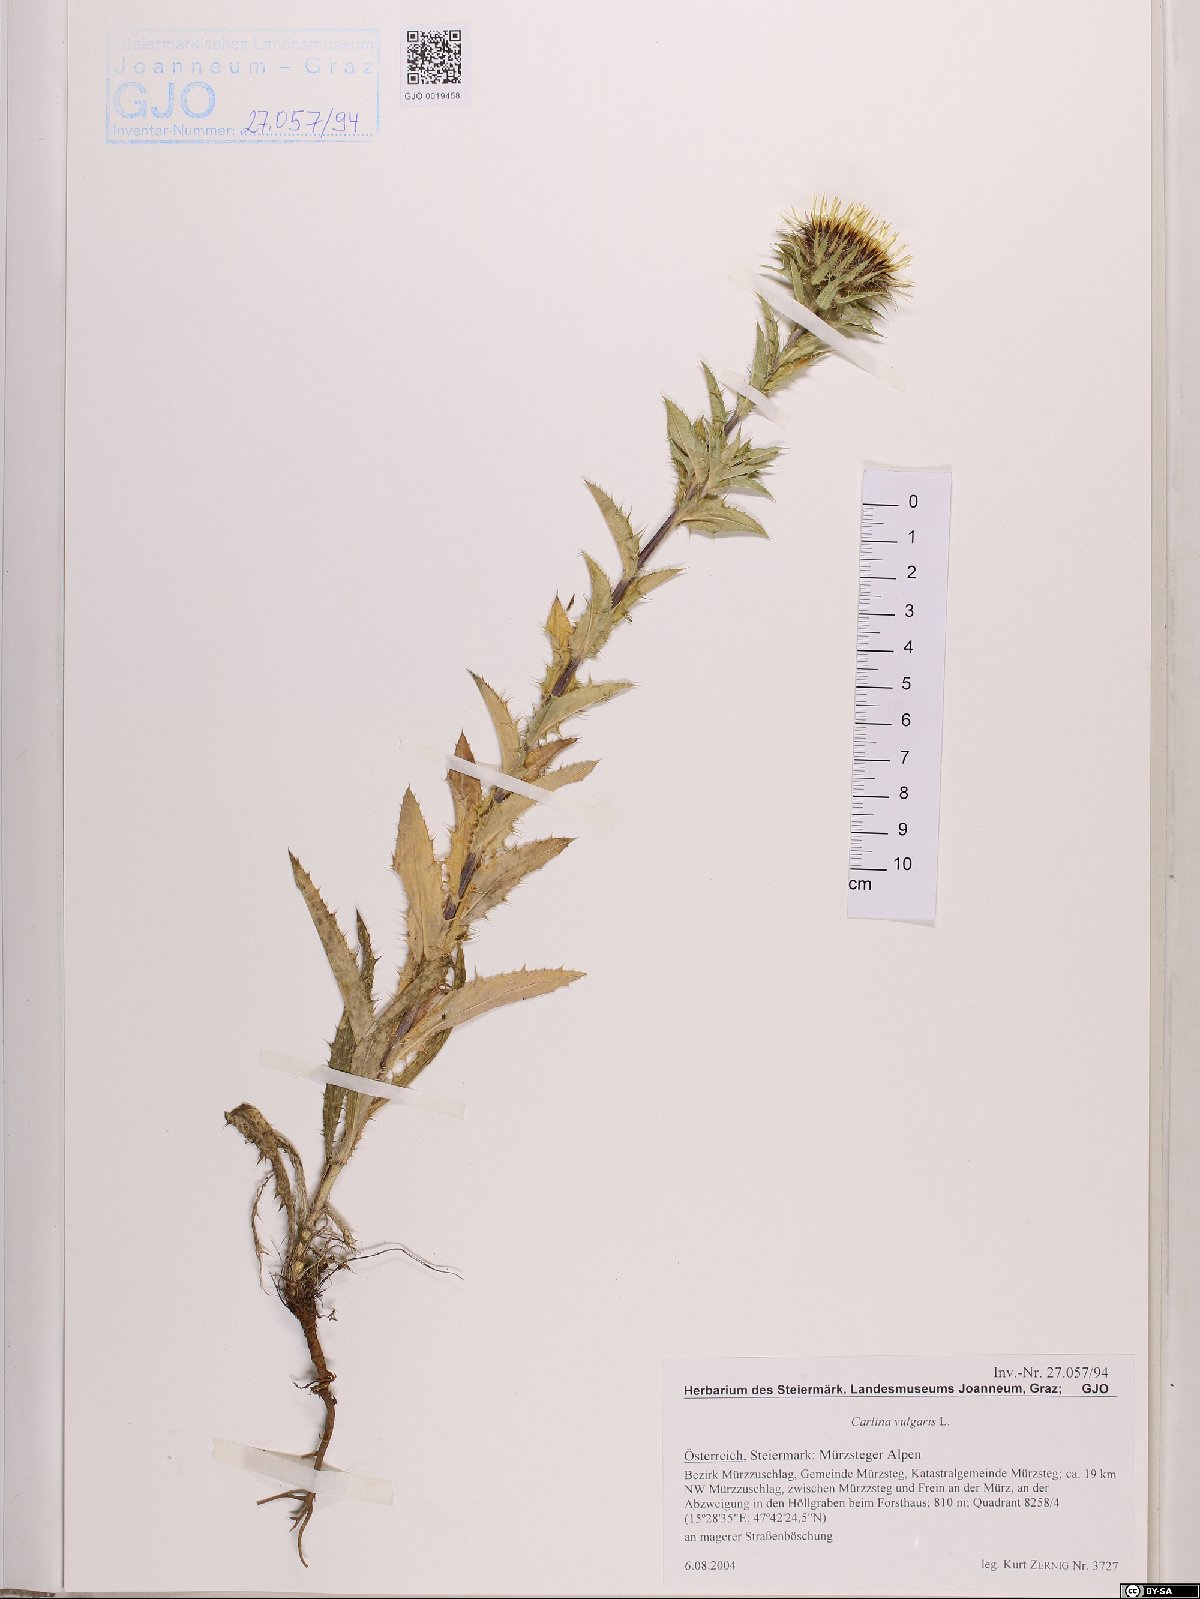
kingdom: Plantae
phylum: Tracheophyta
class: Magnoliopsida
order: Asterales
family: Asteraceae
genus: Carlina
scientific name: Carlina vulgaris
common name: Carline thistle
